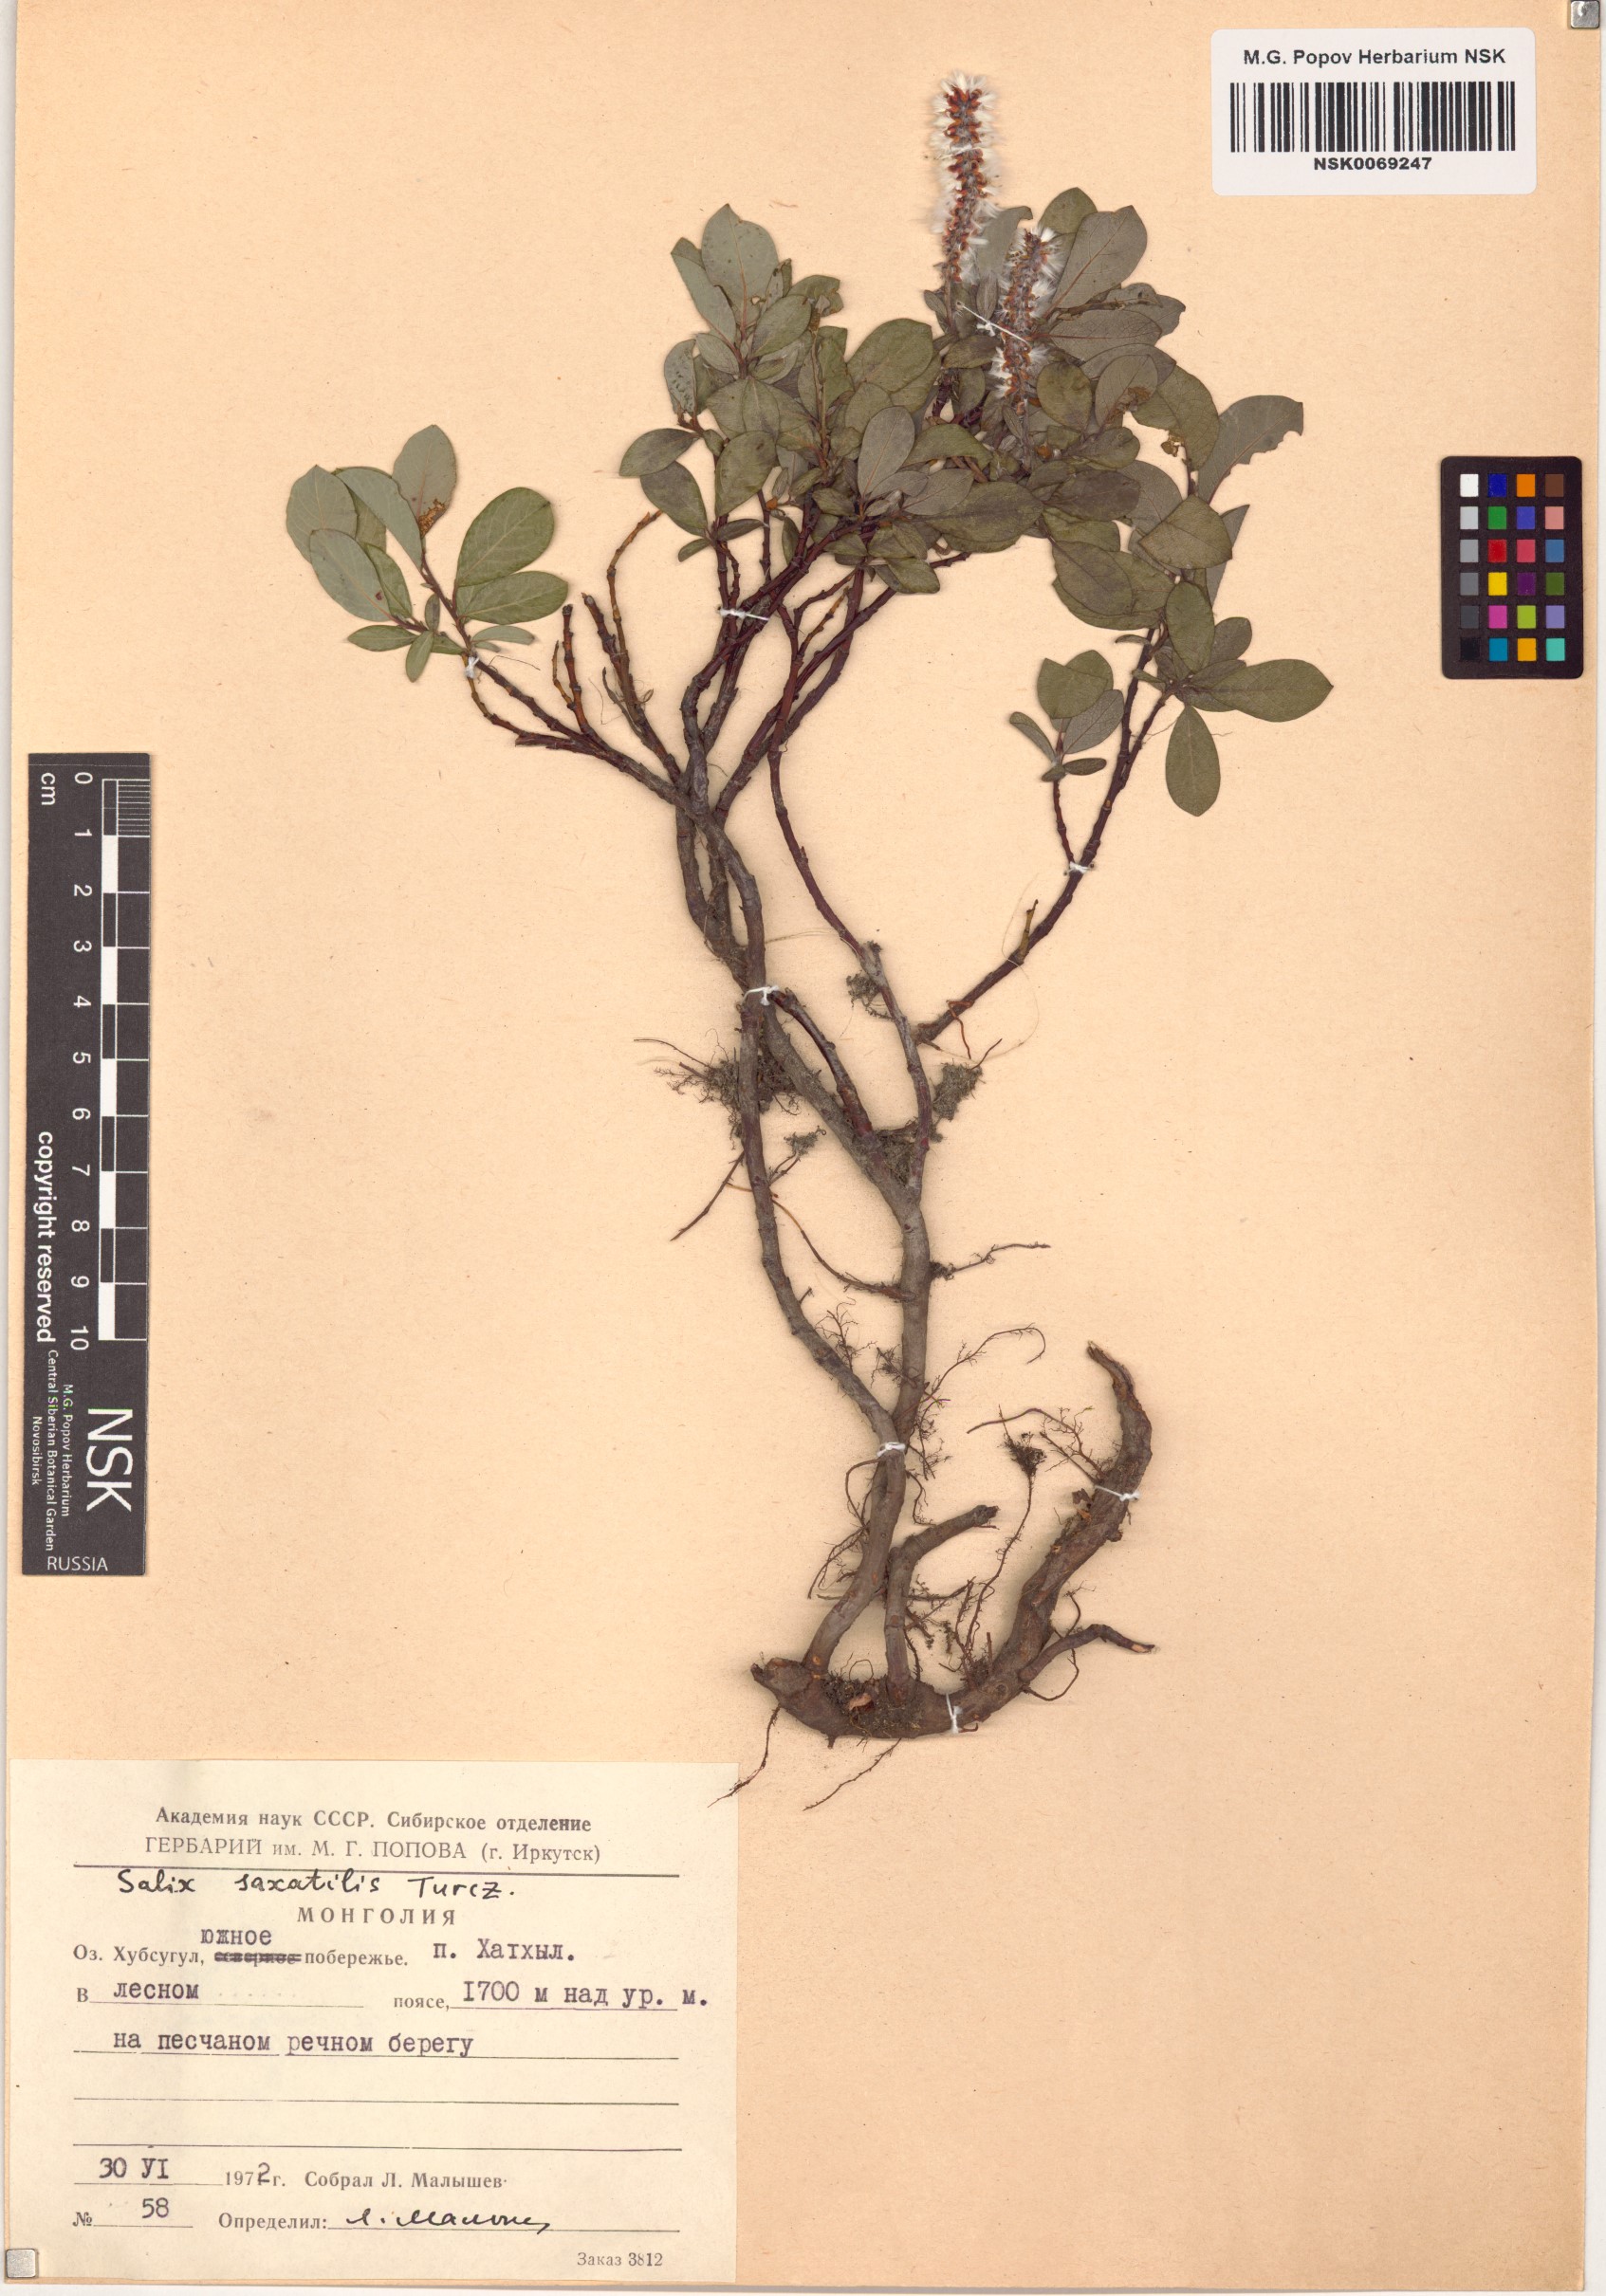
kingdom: Plantae
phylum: Tracheophyta
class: Magnoliopsida
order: Malpighiales
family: Salicaceae
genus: Salix
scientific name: Salix saxatilis
